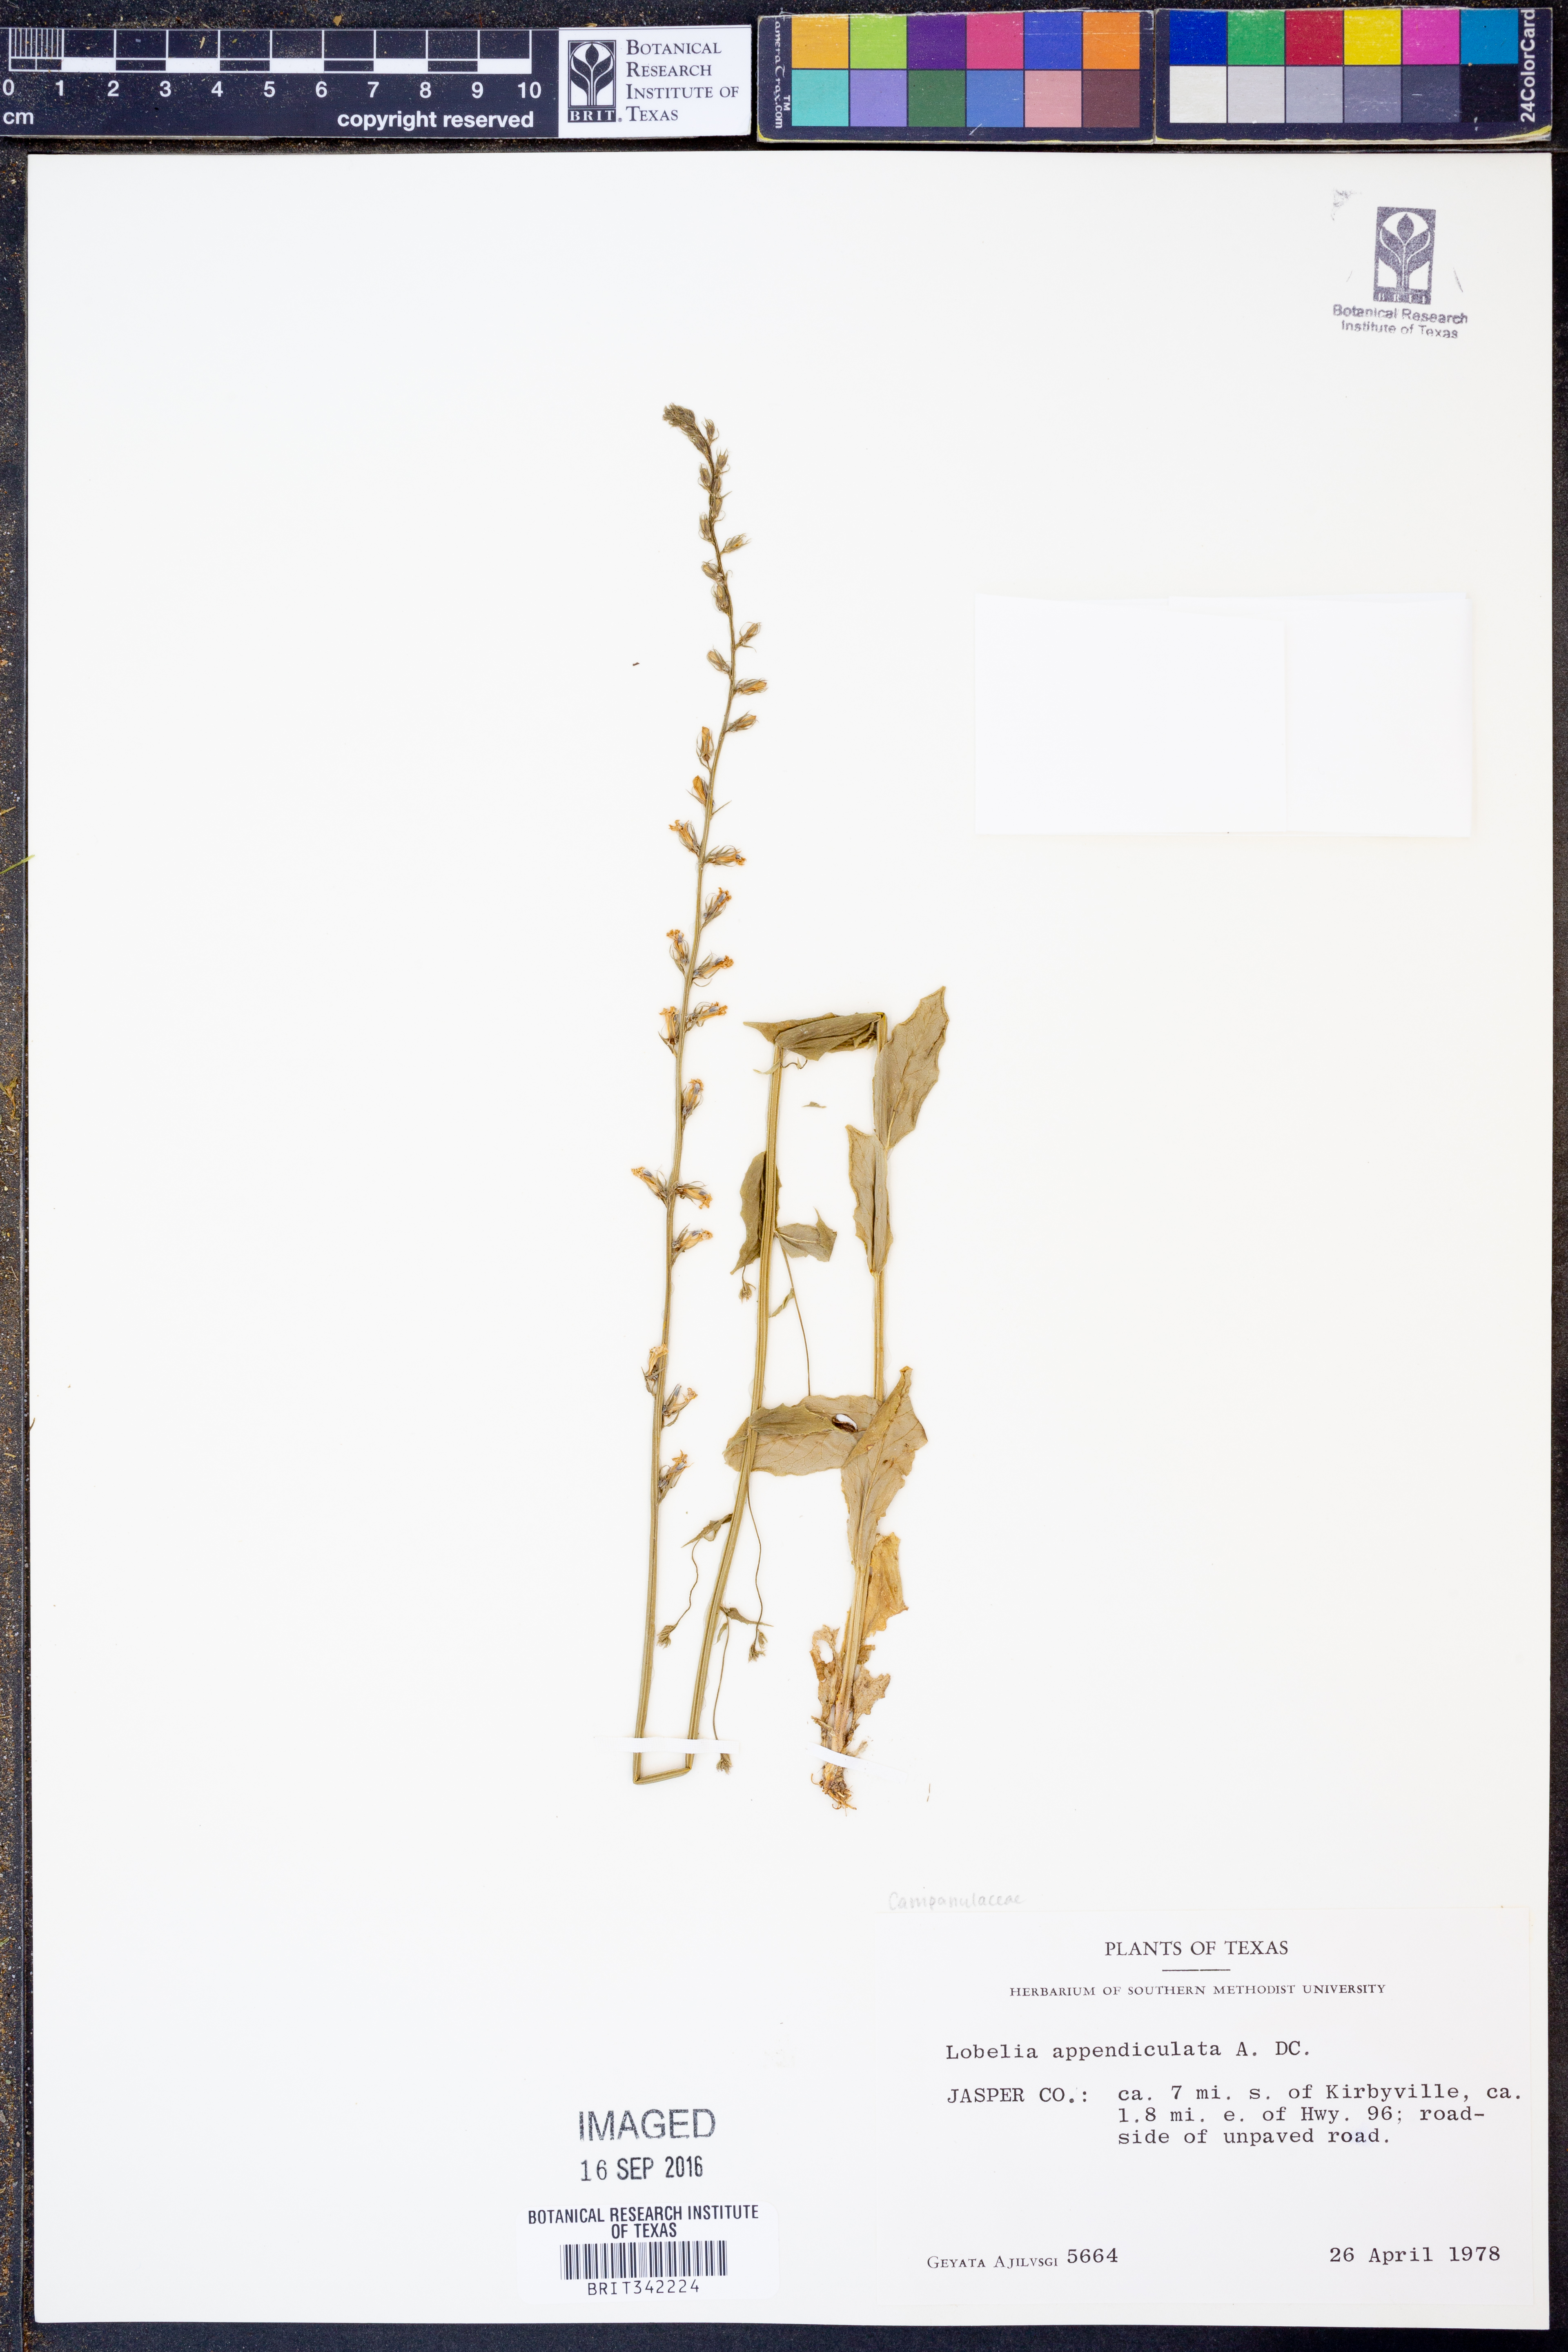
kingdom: Plantae
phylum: Tracheophyta
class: Magnoliopsida
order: Asterales
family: Campanulaceae
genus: Lobelia
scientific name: Lobelia appendiculata
